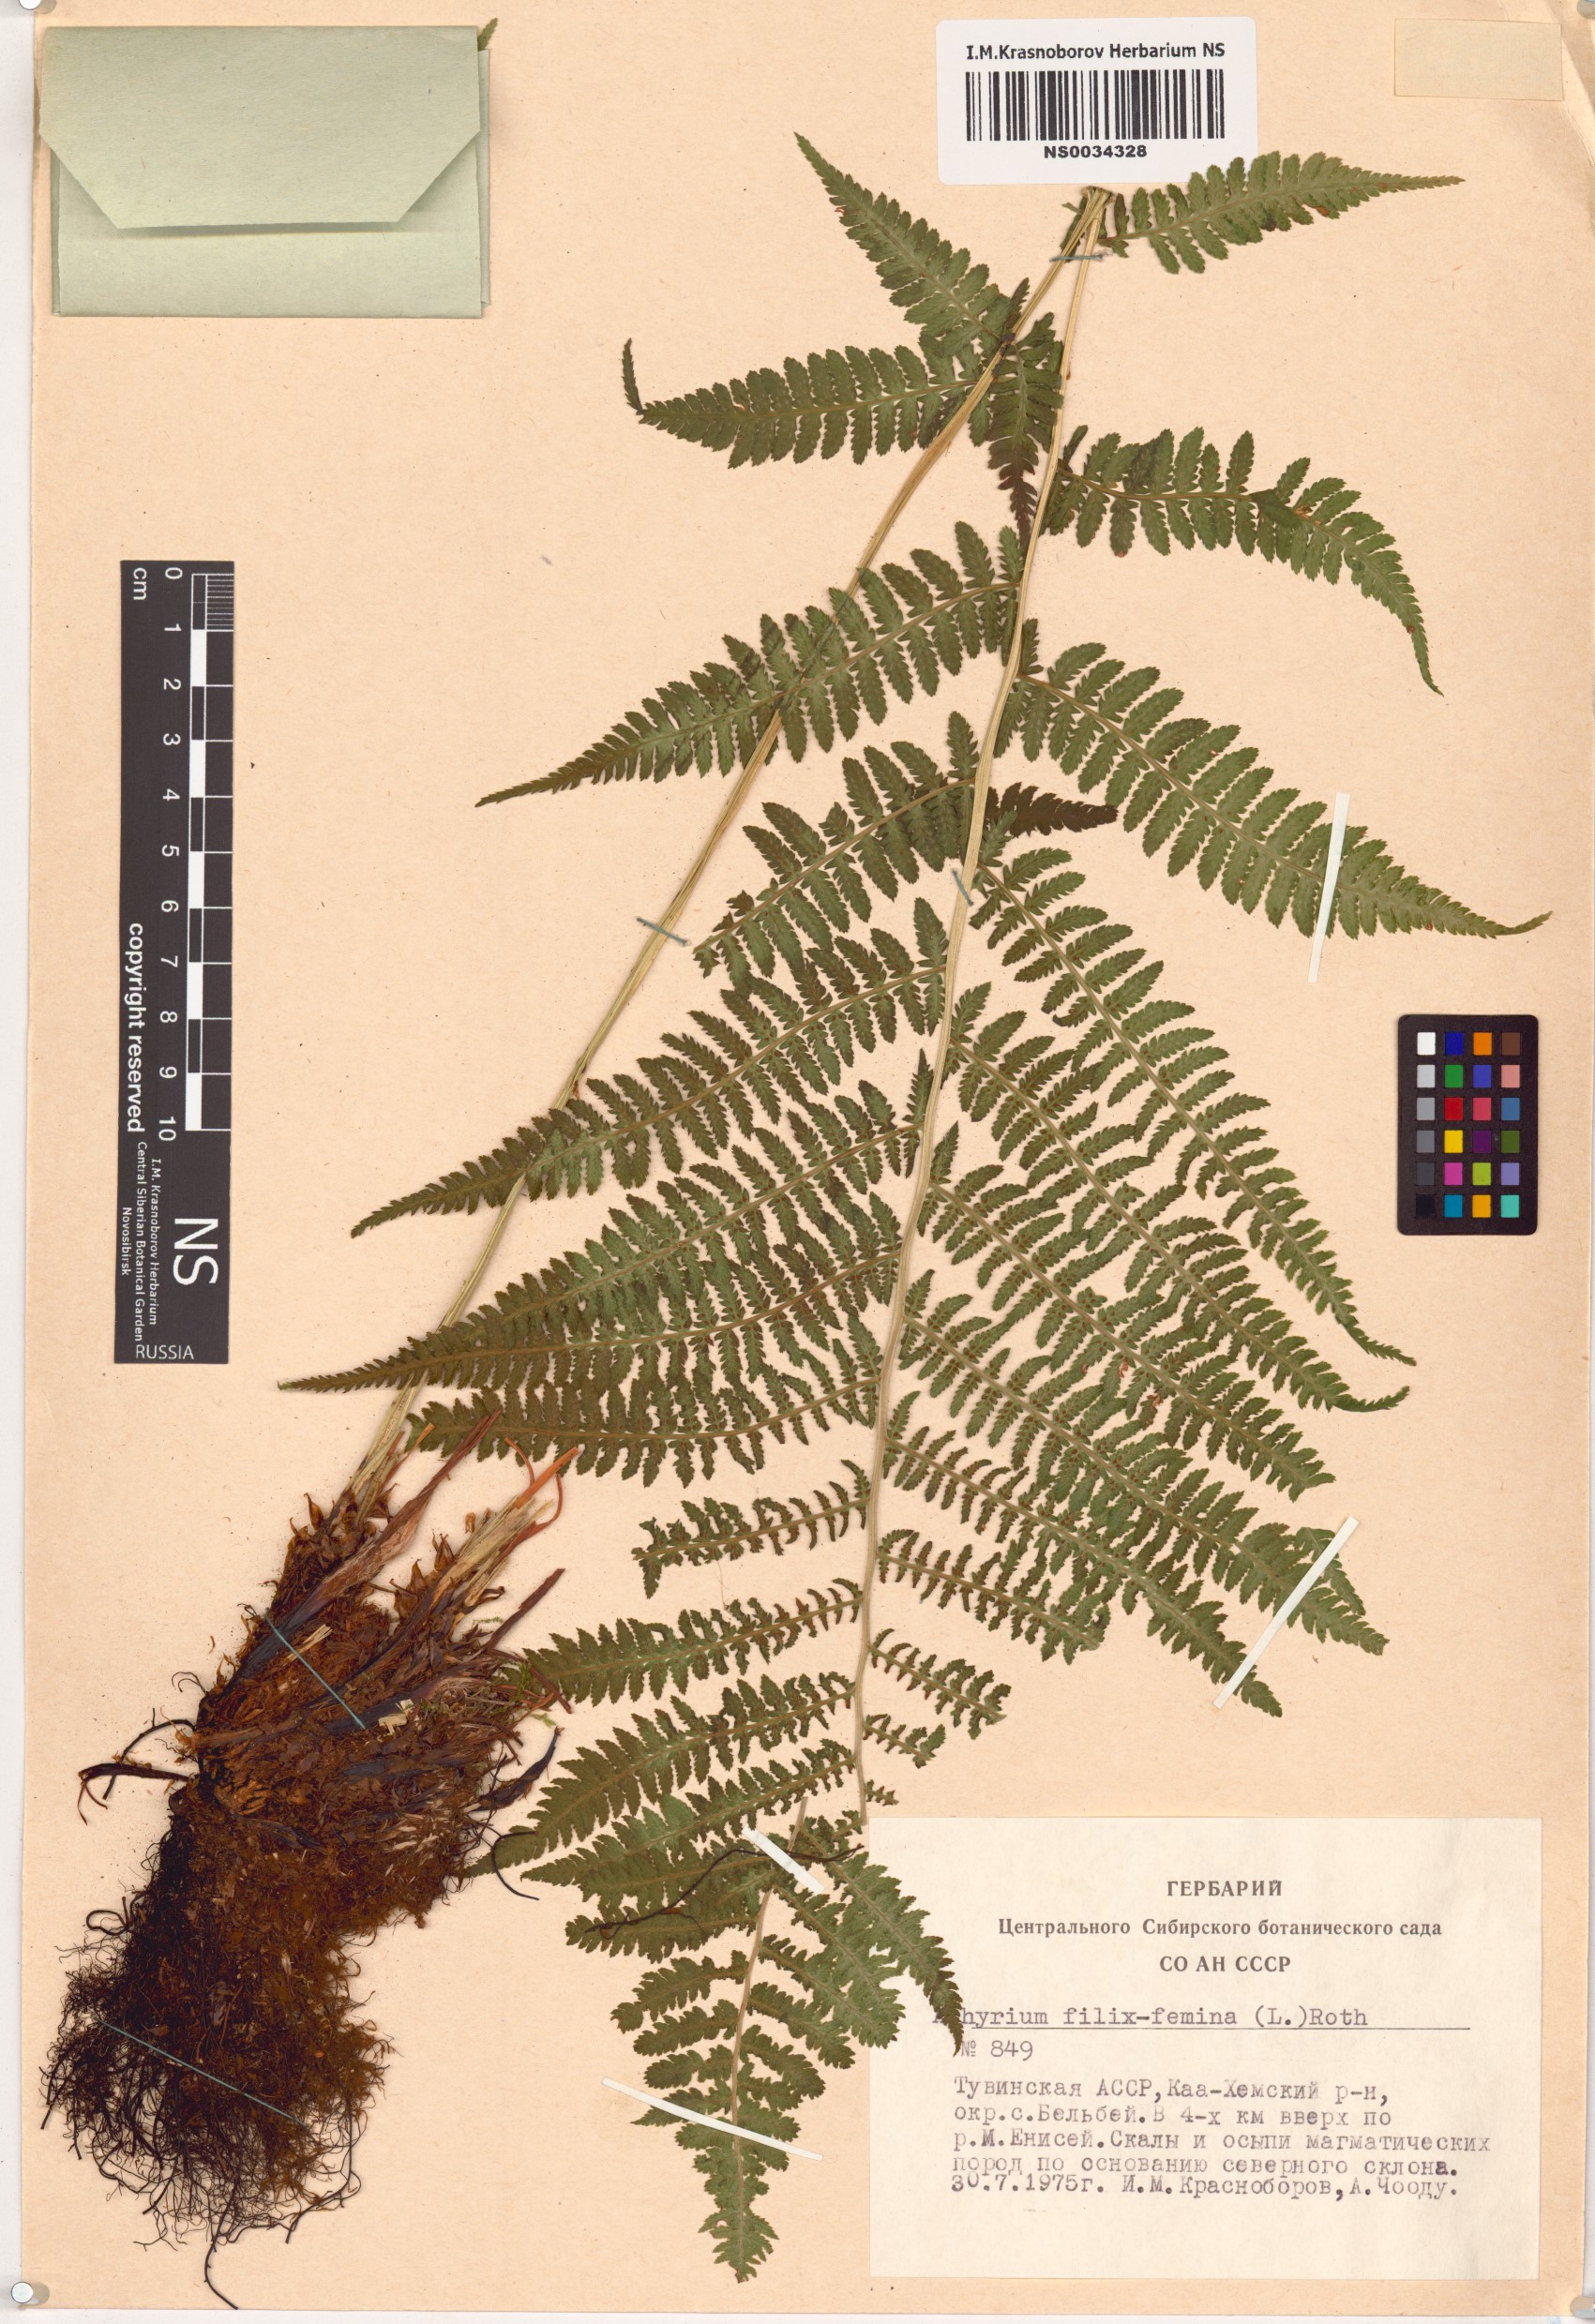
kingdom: Plantae
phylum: Tracheophyta
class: Polypodiopsida
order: Polypodiales
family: Athyriaceae
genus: Athyrium
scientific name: Athyrium filix-femina
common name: Lady fern
